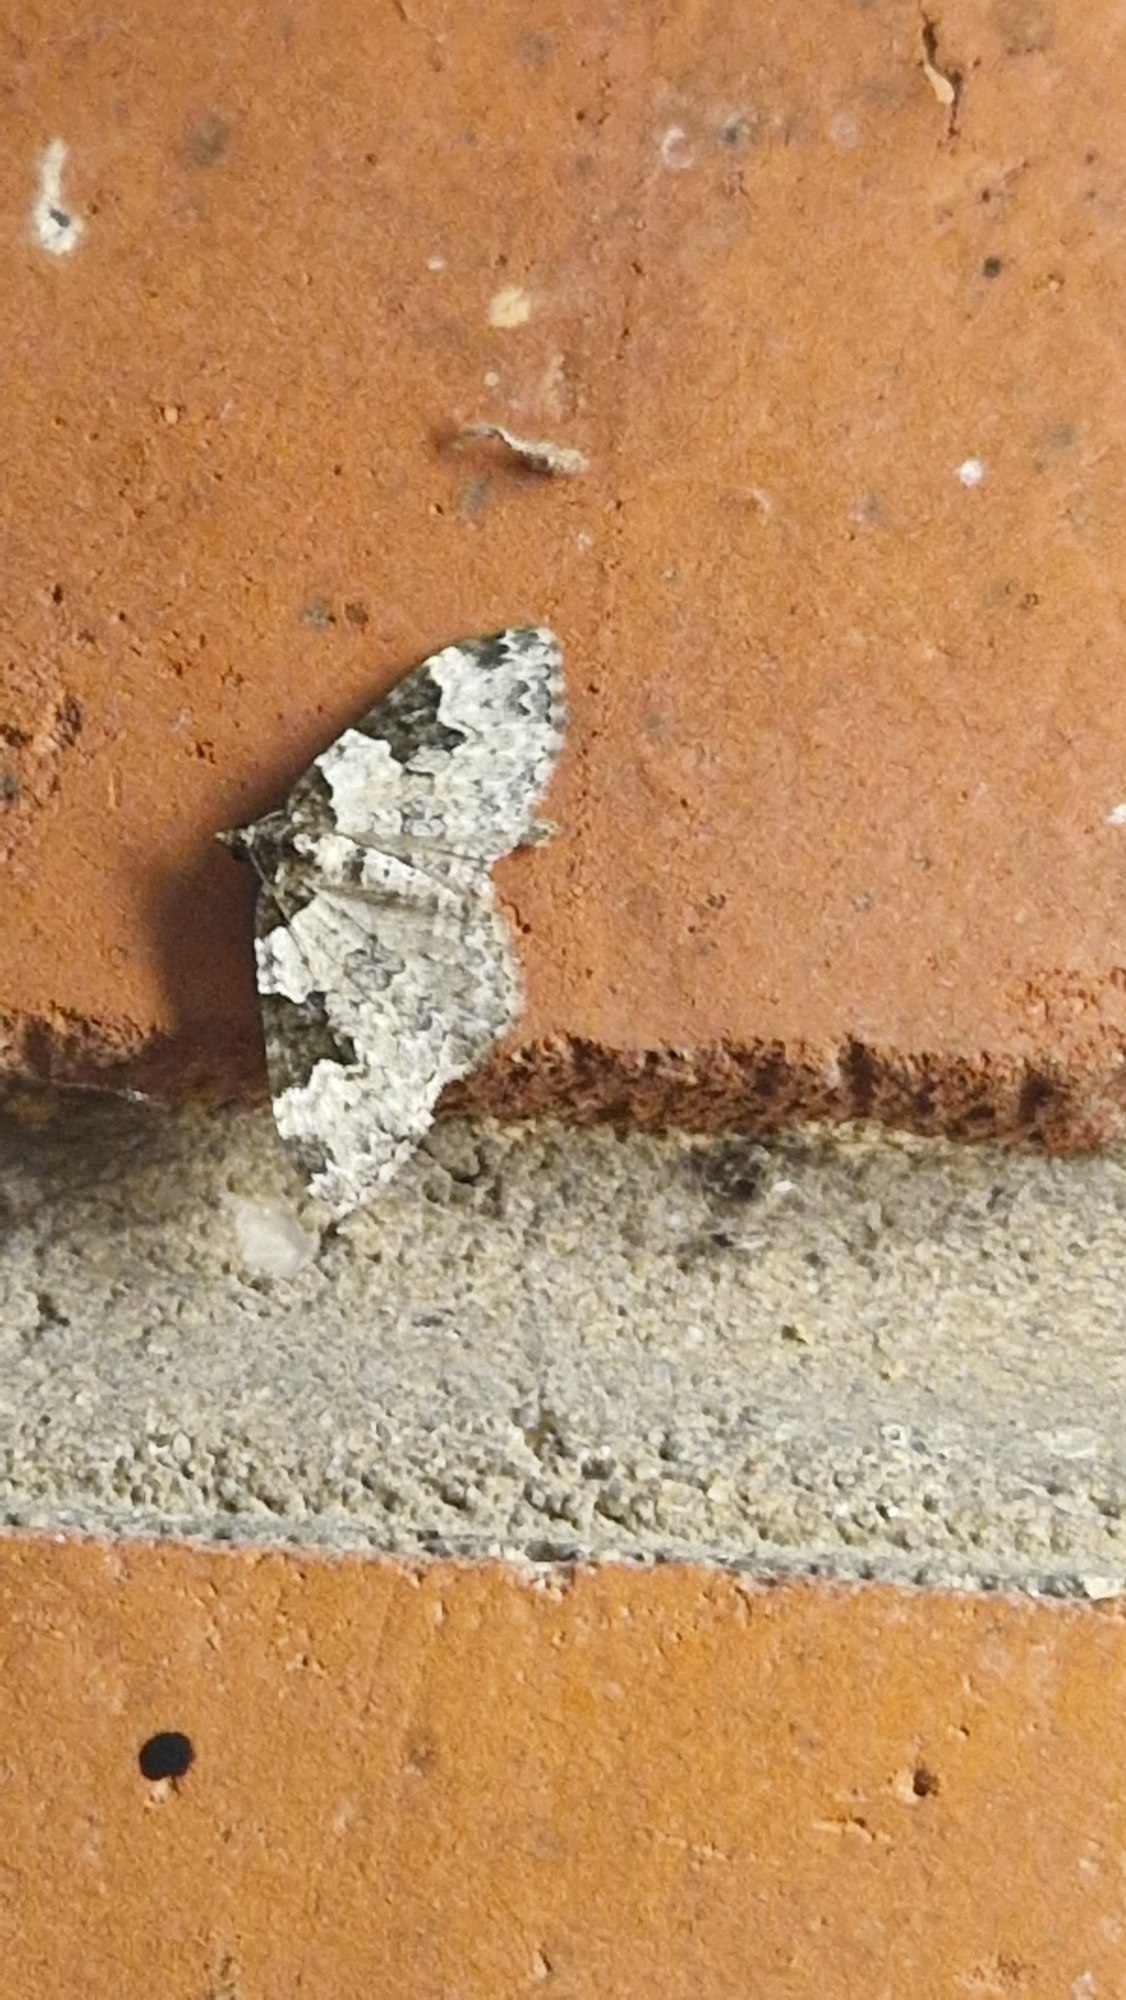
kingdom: Animalia
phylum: Arthropoda
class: Insecta
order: Lepidoptera
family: Geometridae
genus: Xanthorhoe
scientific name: Xanthorhoe fluctuata
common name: Sortbæltet bladmåler
